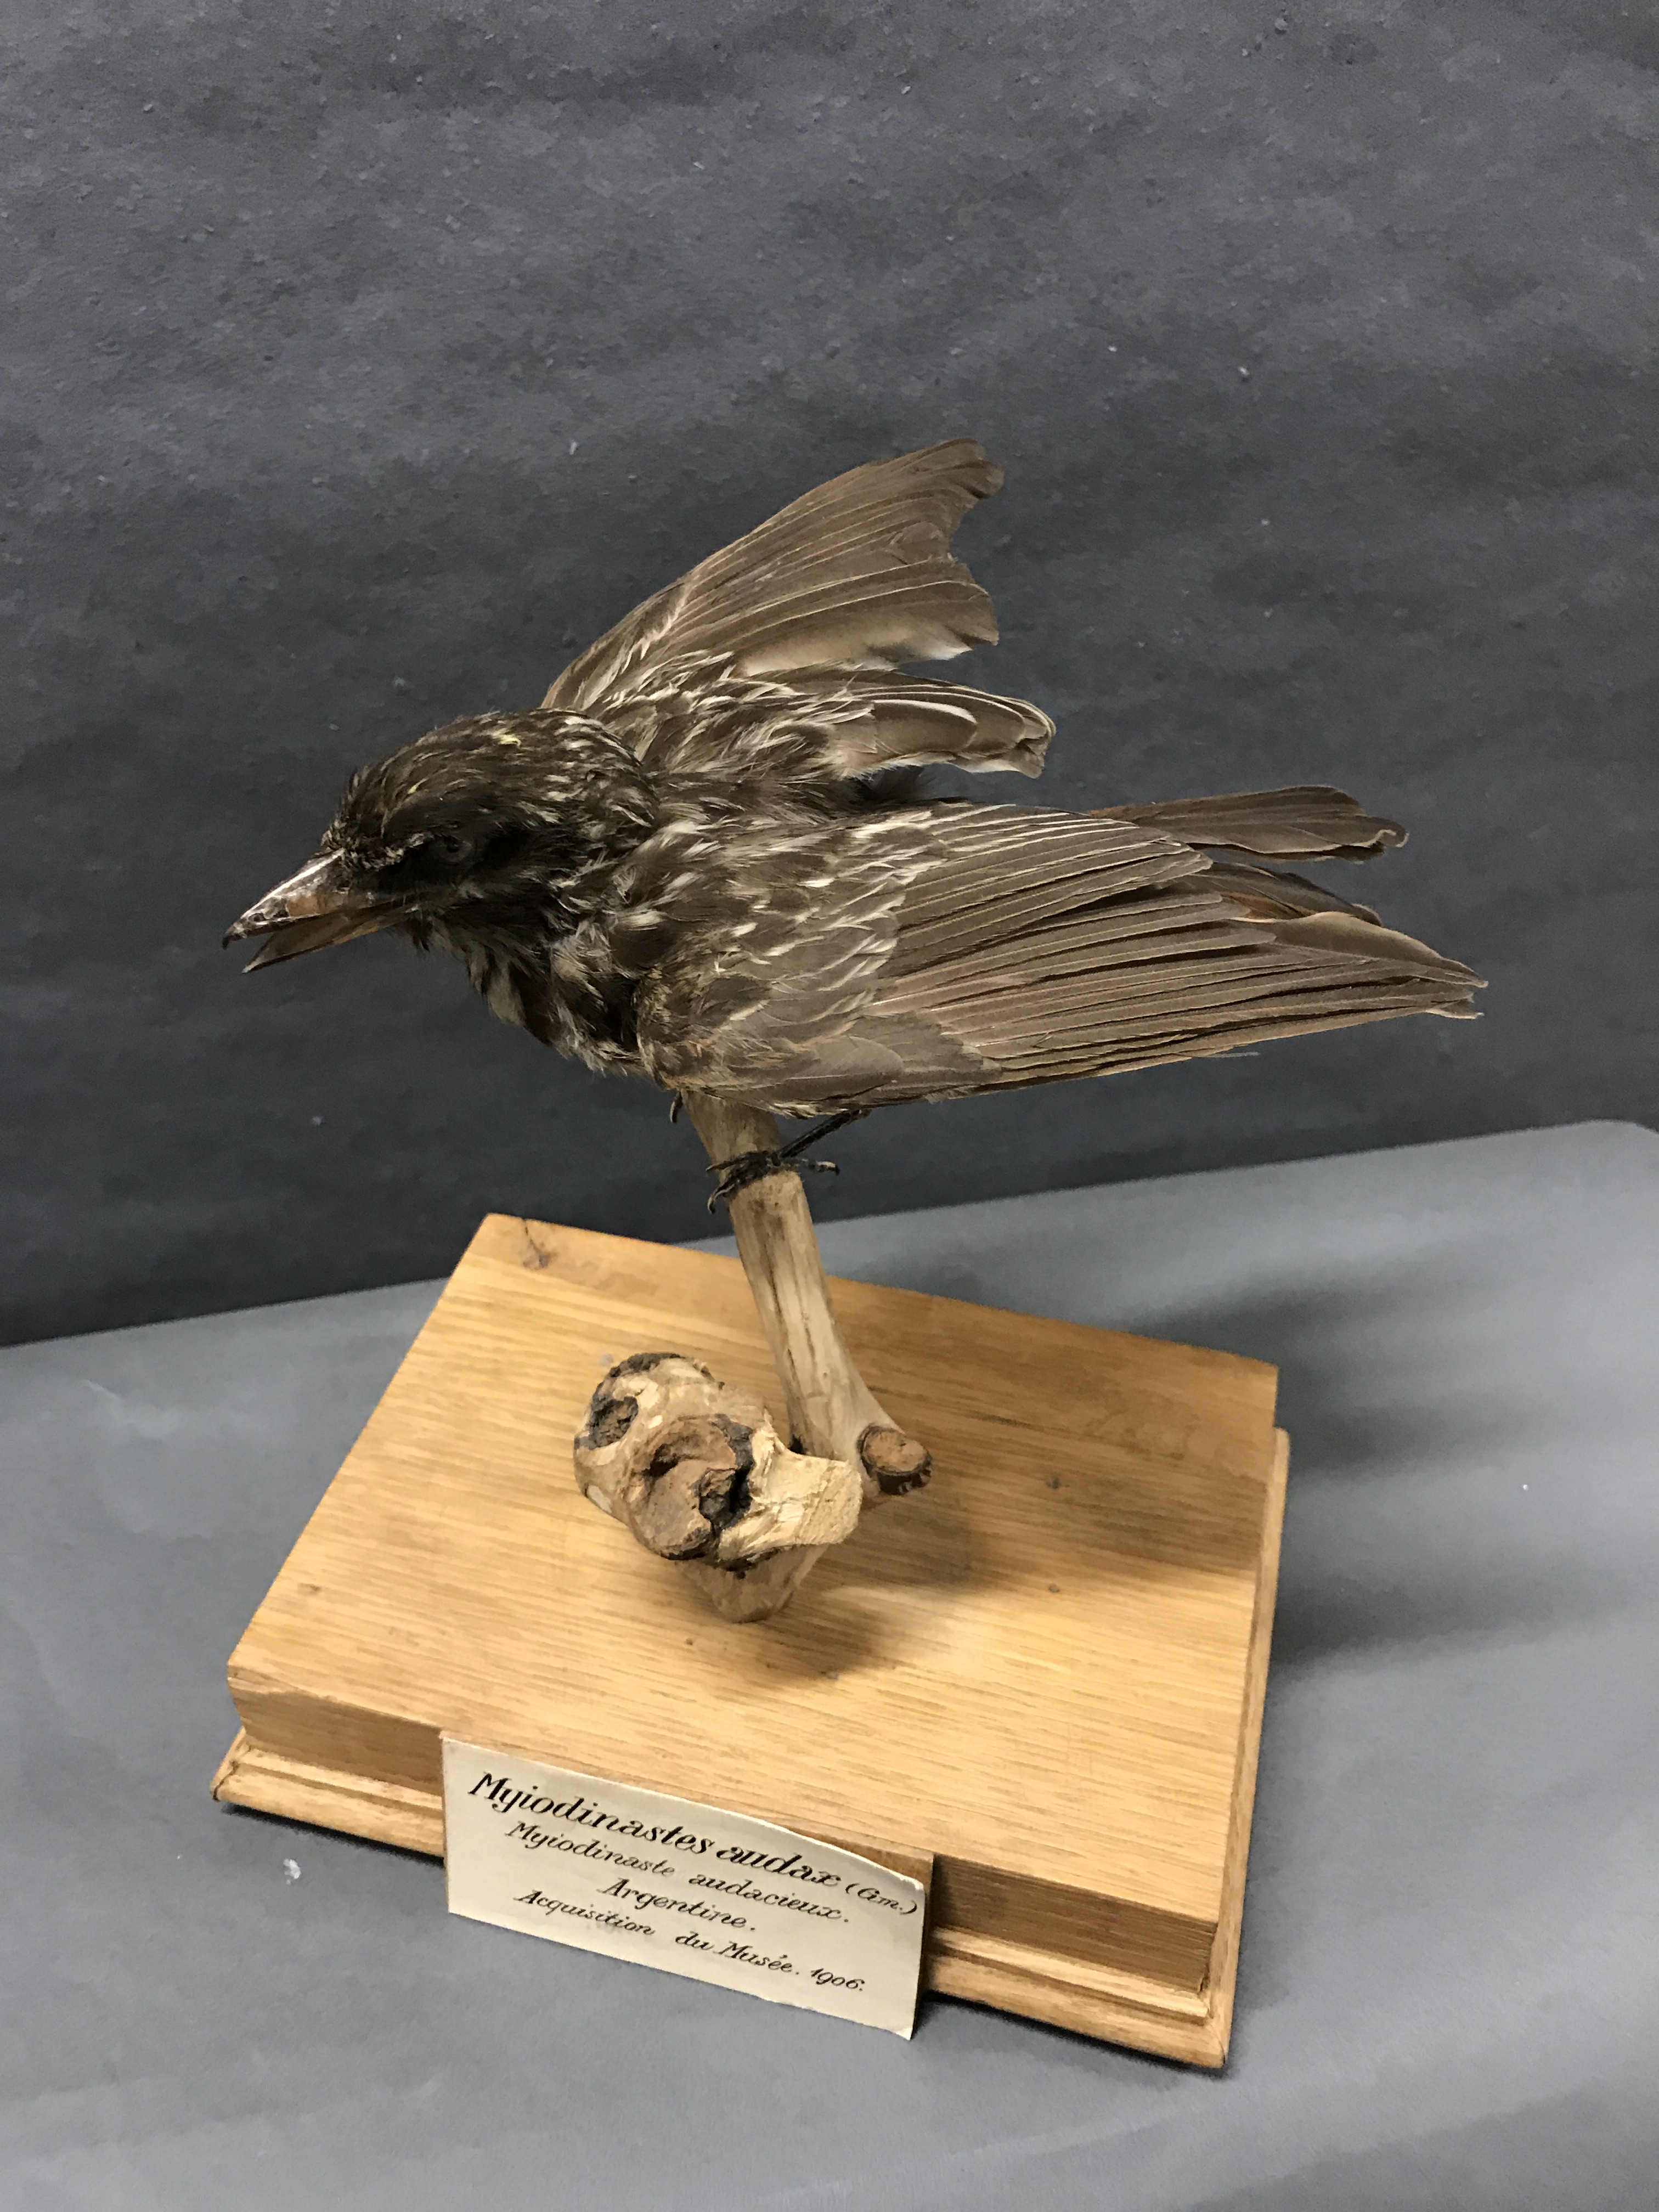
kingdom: Animalia
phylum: Chordata
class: Aves
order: Passeriformes
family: Tyrannidae
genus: Myiodynastes
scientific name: Myiodynastes maculatus
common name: Streaked flycatcher
